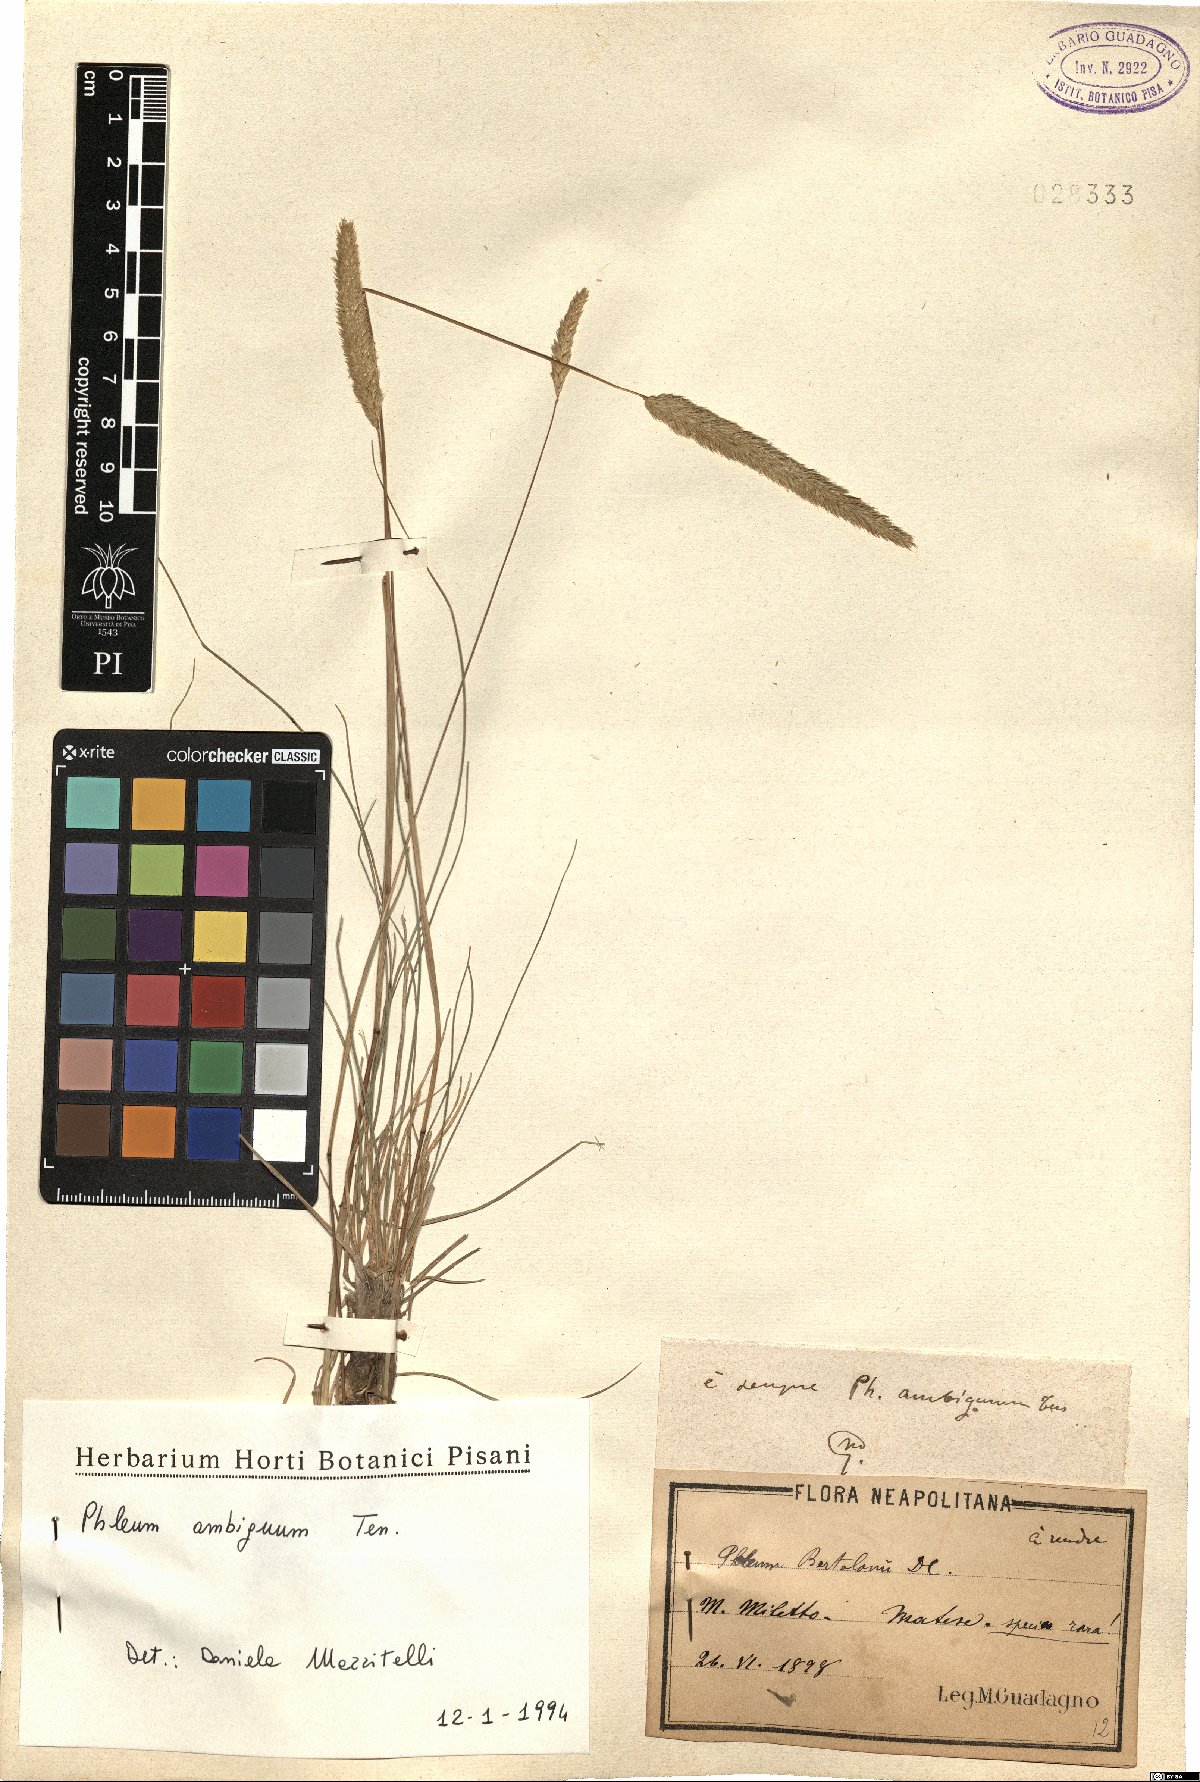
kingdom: Plantae
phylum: Tracheophyta
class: Liliopsida
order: Poales
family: Poaceae
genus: Phleum
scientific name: Phleum hirsutum
